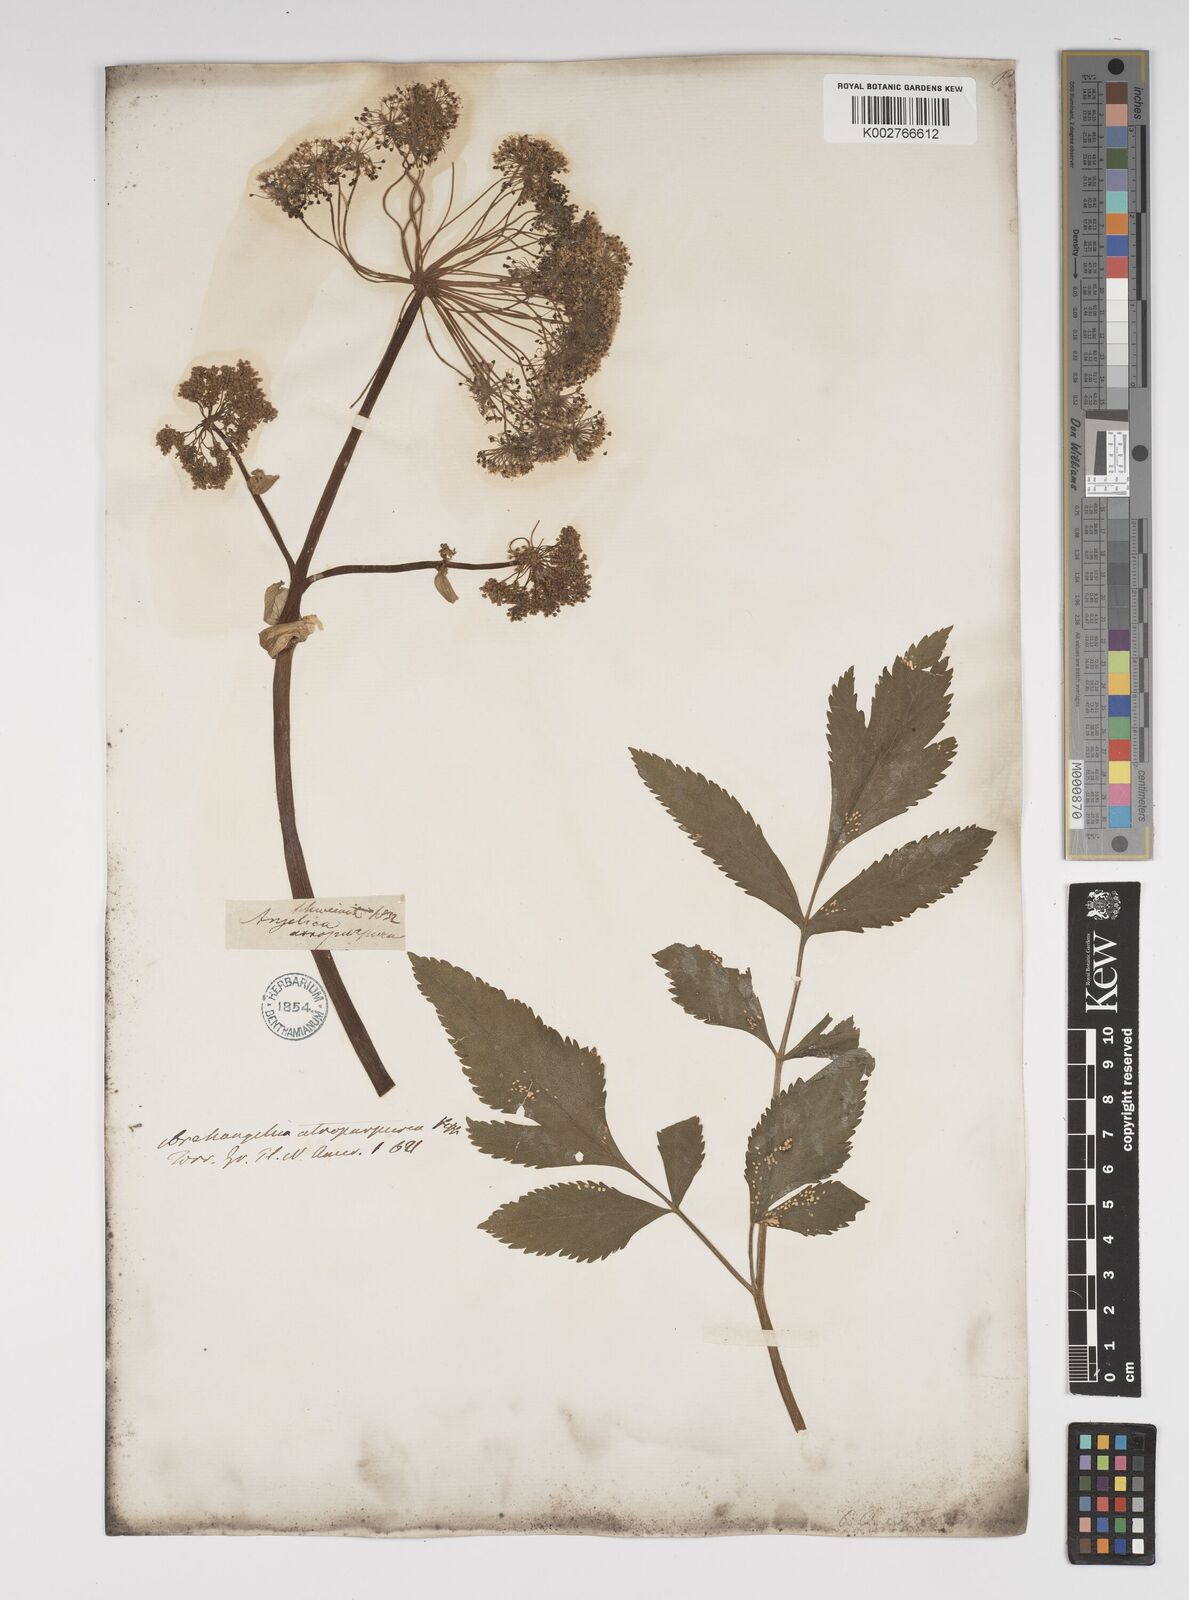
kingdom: Plantae
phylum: Tracheophyta
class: Magnoliopsida
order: Apiales
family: Apiaceae
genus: Angelica
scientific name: Angelica atropurpurea
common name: Great angelica
